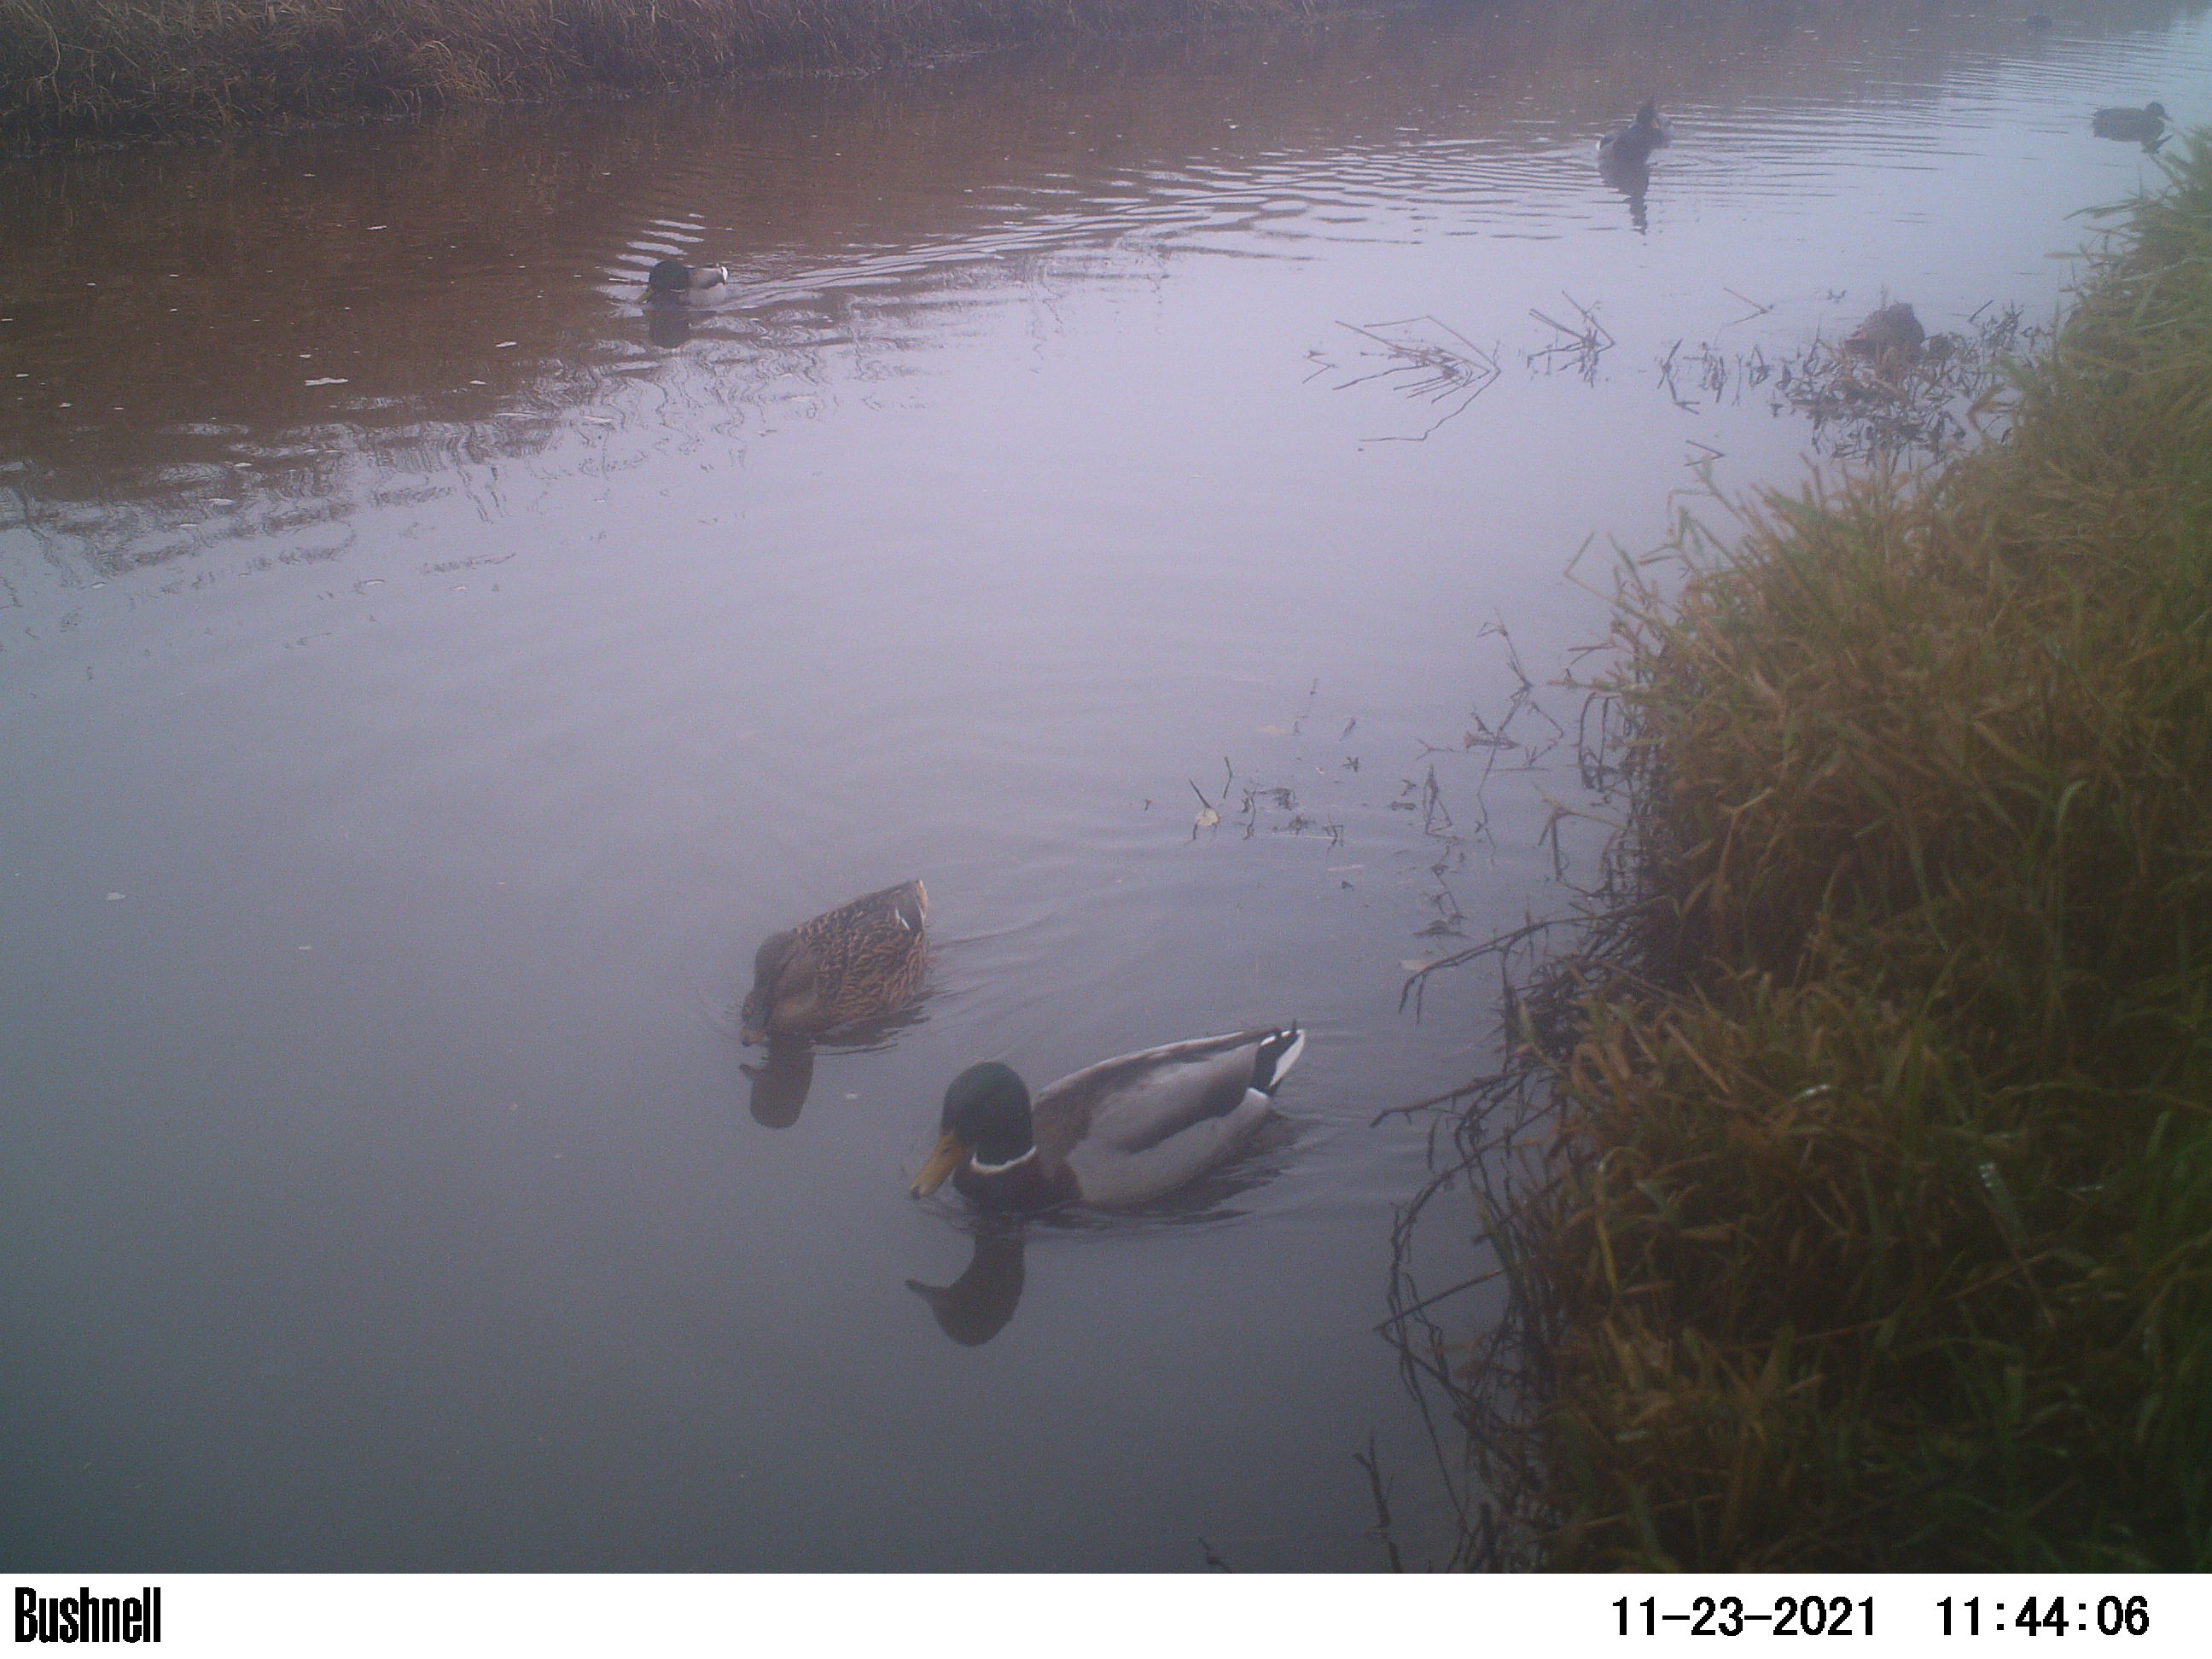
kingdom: Animalia
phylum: Chordata
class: Aves
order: Anseriformes
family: Anatidae
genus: Anas
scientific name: Anas
